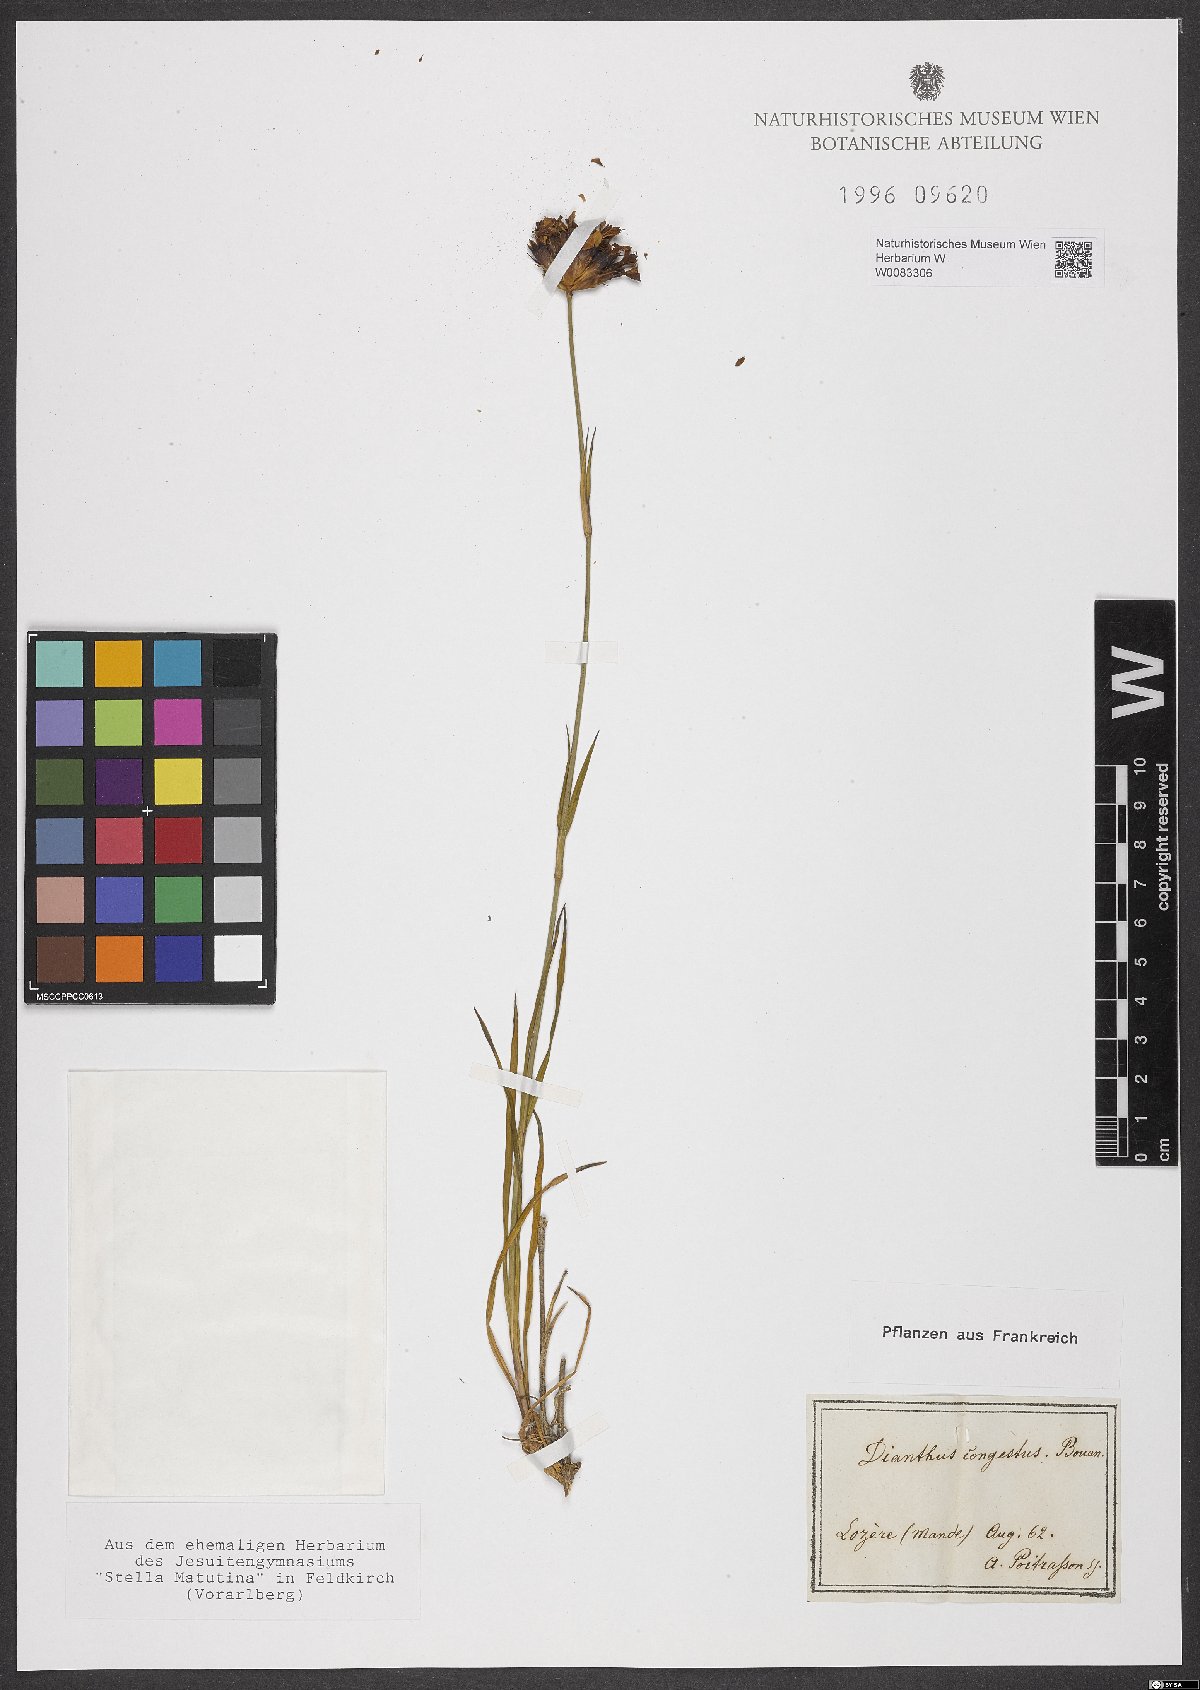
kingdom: Plantae
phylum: Tracheophyta
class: Magnoliopsida
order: Caryophyllales
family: Caryophyllaceae
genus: Dianthus
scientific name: Dianthus carthusianorum
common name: Carthusian pink
